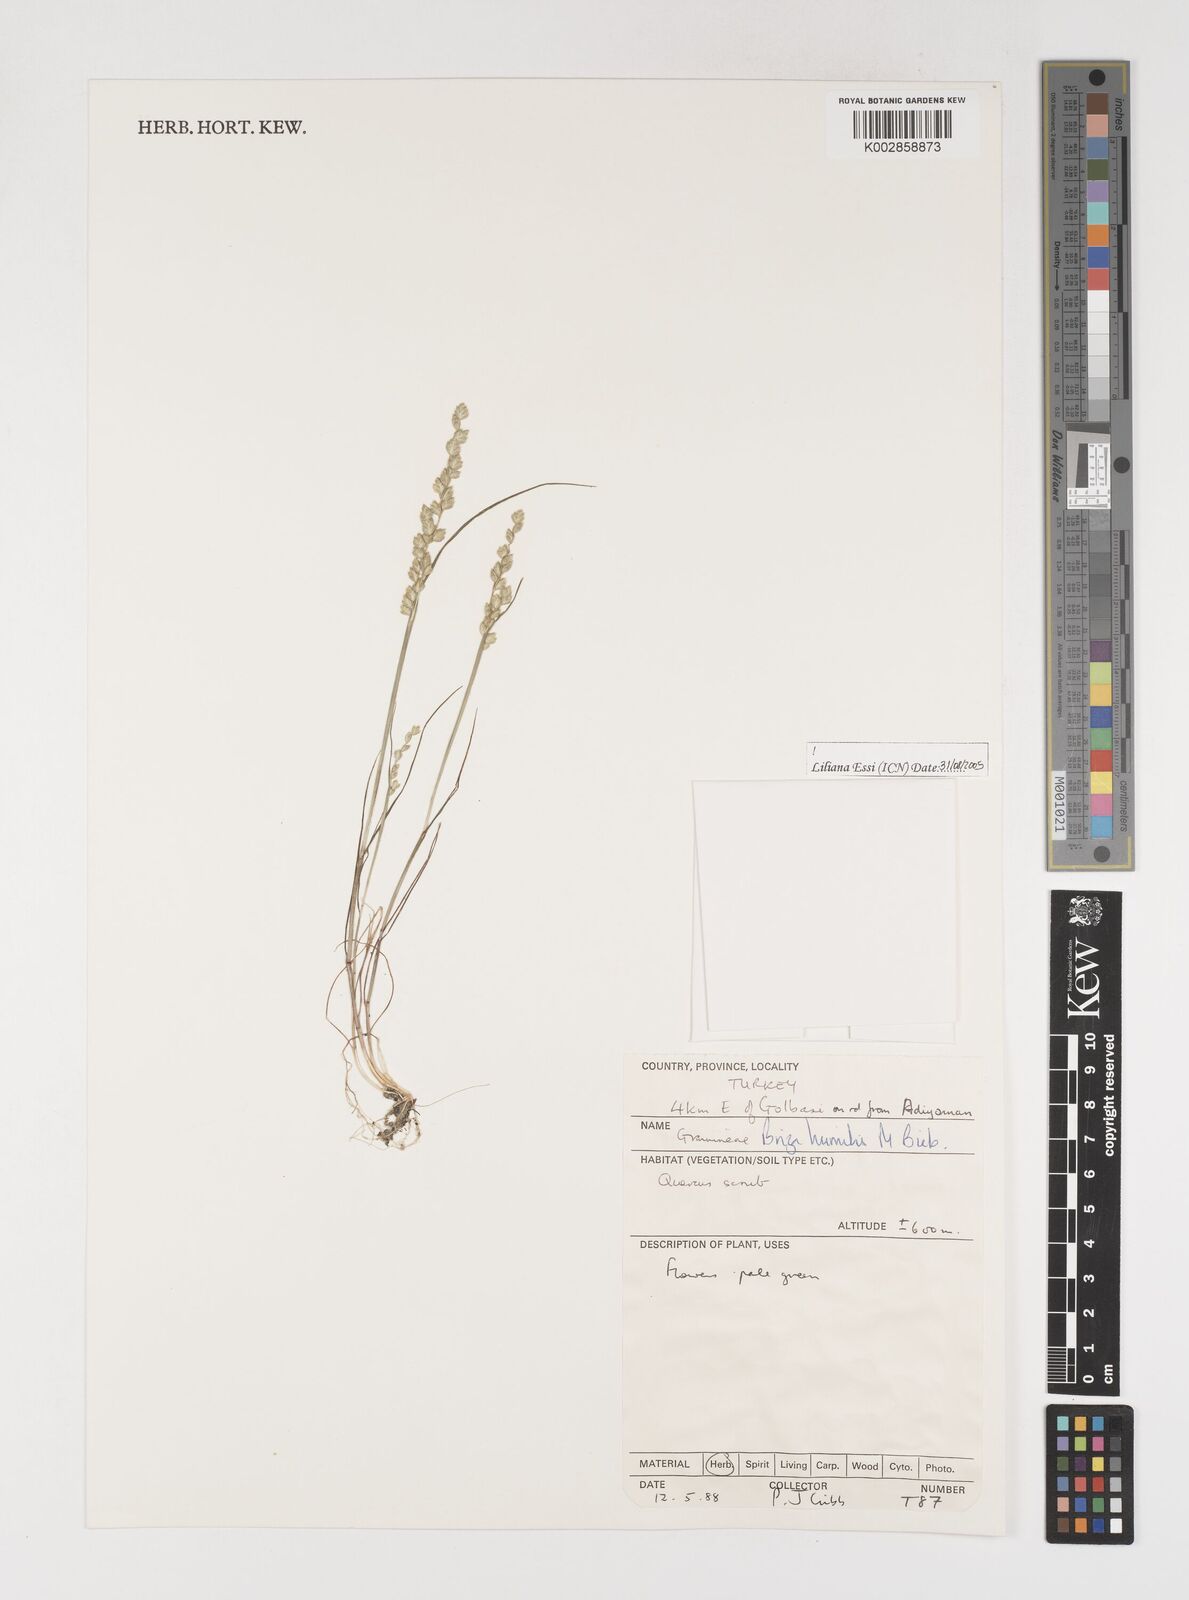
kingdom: Plantae
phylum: Tracheophyta
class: Liliopsida
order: Poales
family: Poaceae
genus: Briza
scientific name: Briza humilis
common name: Spiked quaking grass
